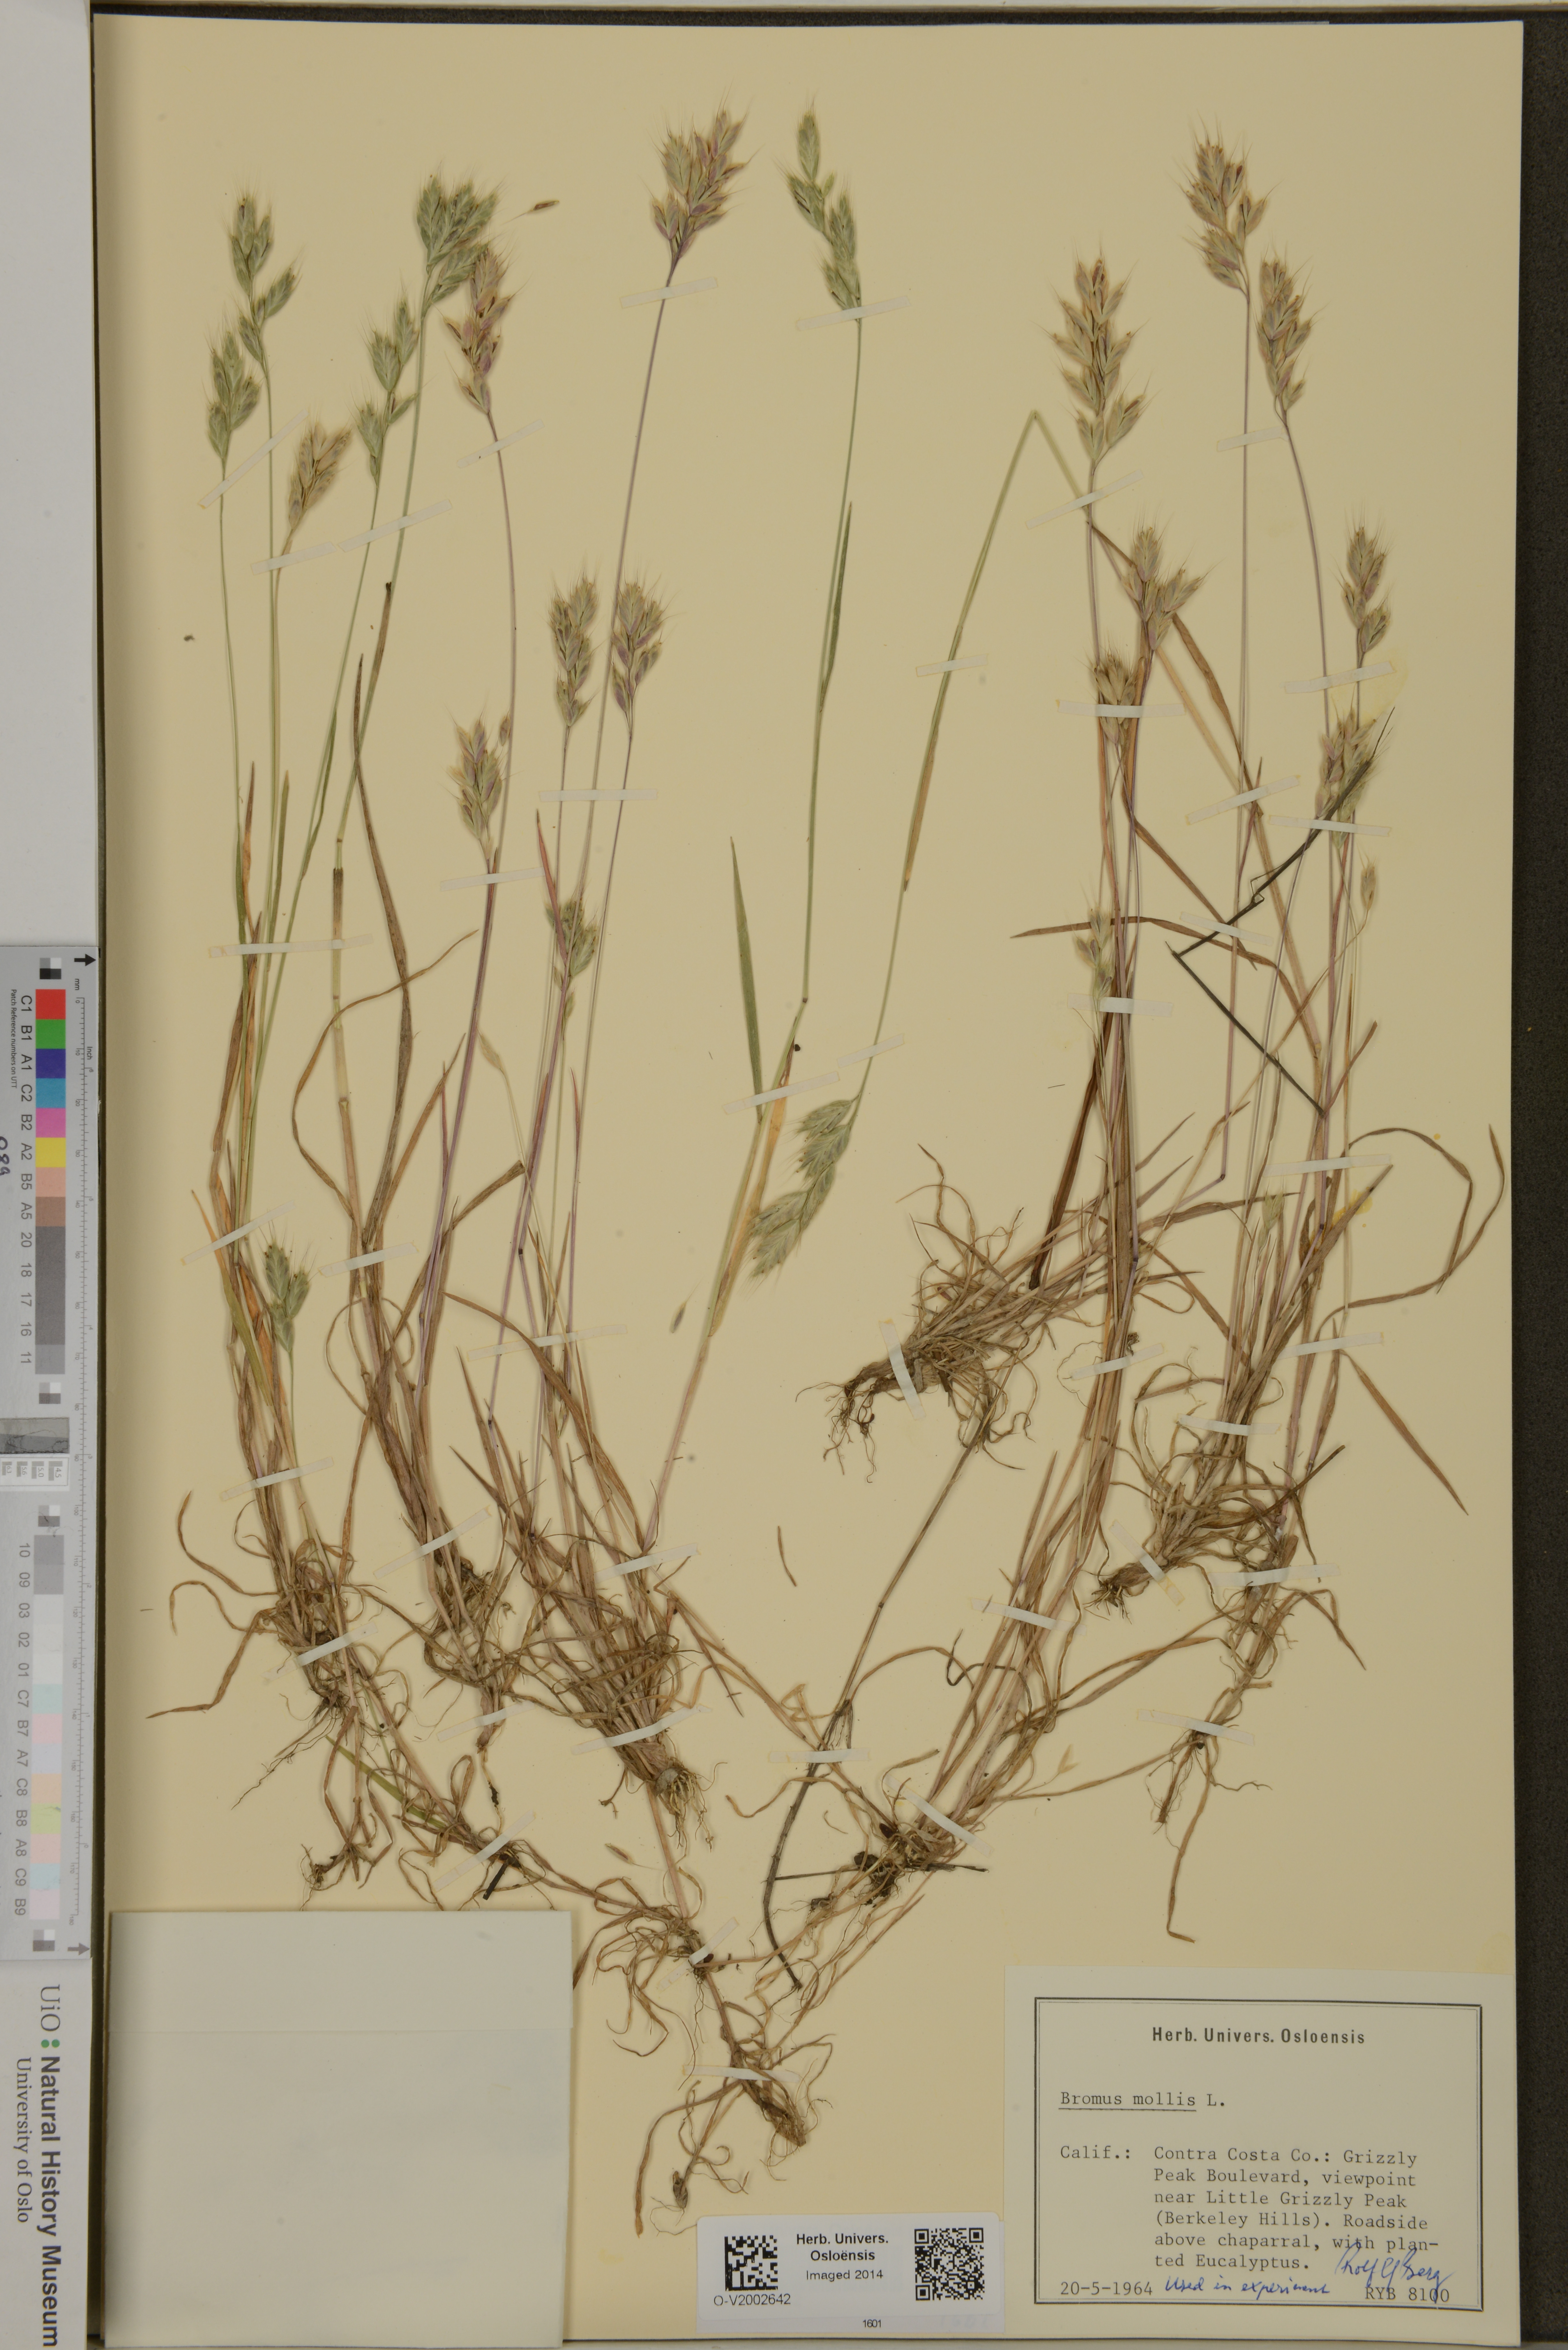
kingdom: Plantae
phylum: Tracheophyta
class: Liliopsida
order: Poales
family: Poaceae
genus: Bromus
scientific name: Bromus hordeaceus
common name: Soft brome
